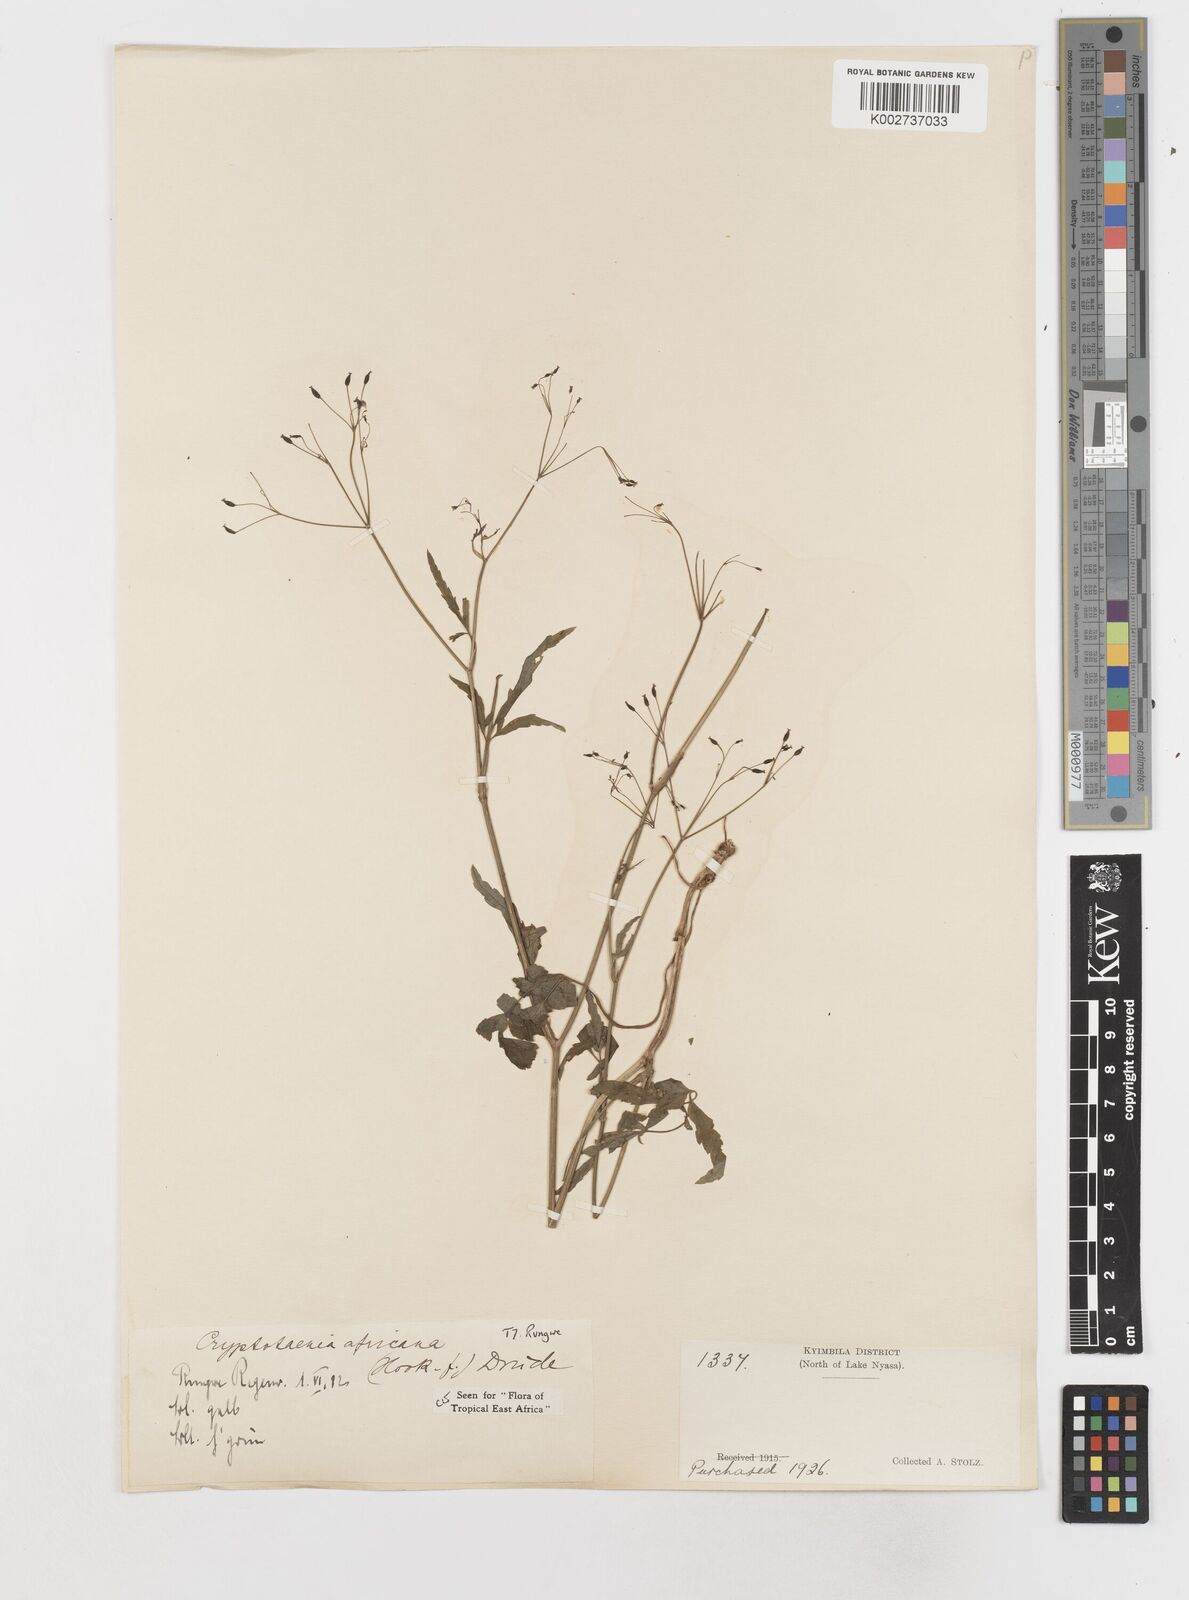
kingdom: Plantae
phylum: Tracheophyta
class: Magnoliopsida
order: Apiales
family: Apiaceae
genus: Cryptotaenia
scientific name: Cryptotaenia africana
